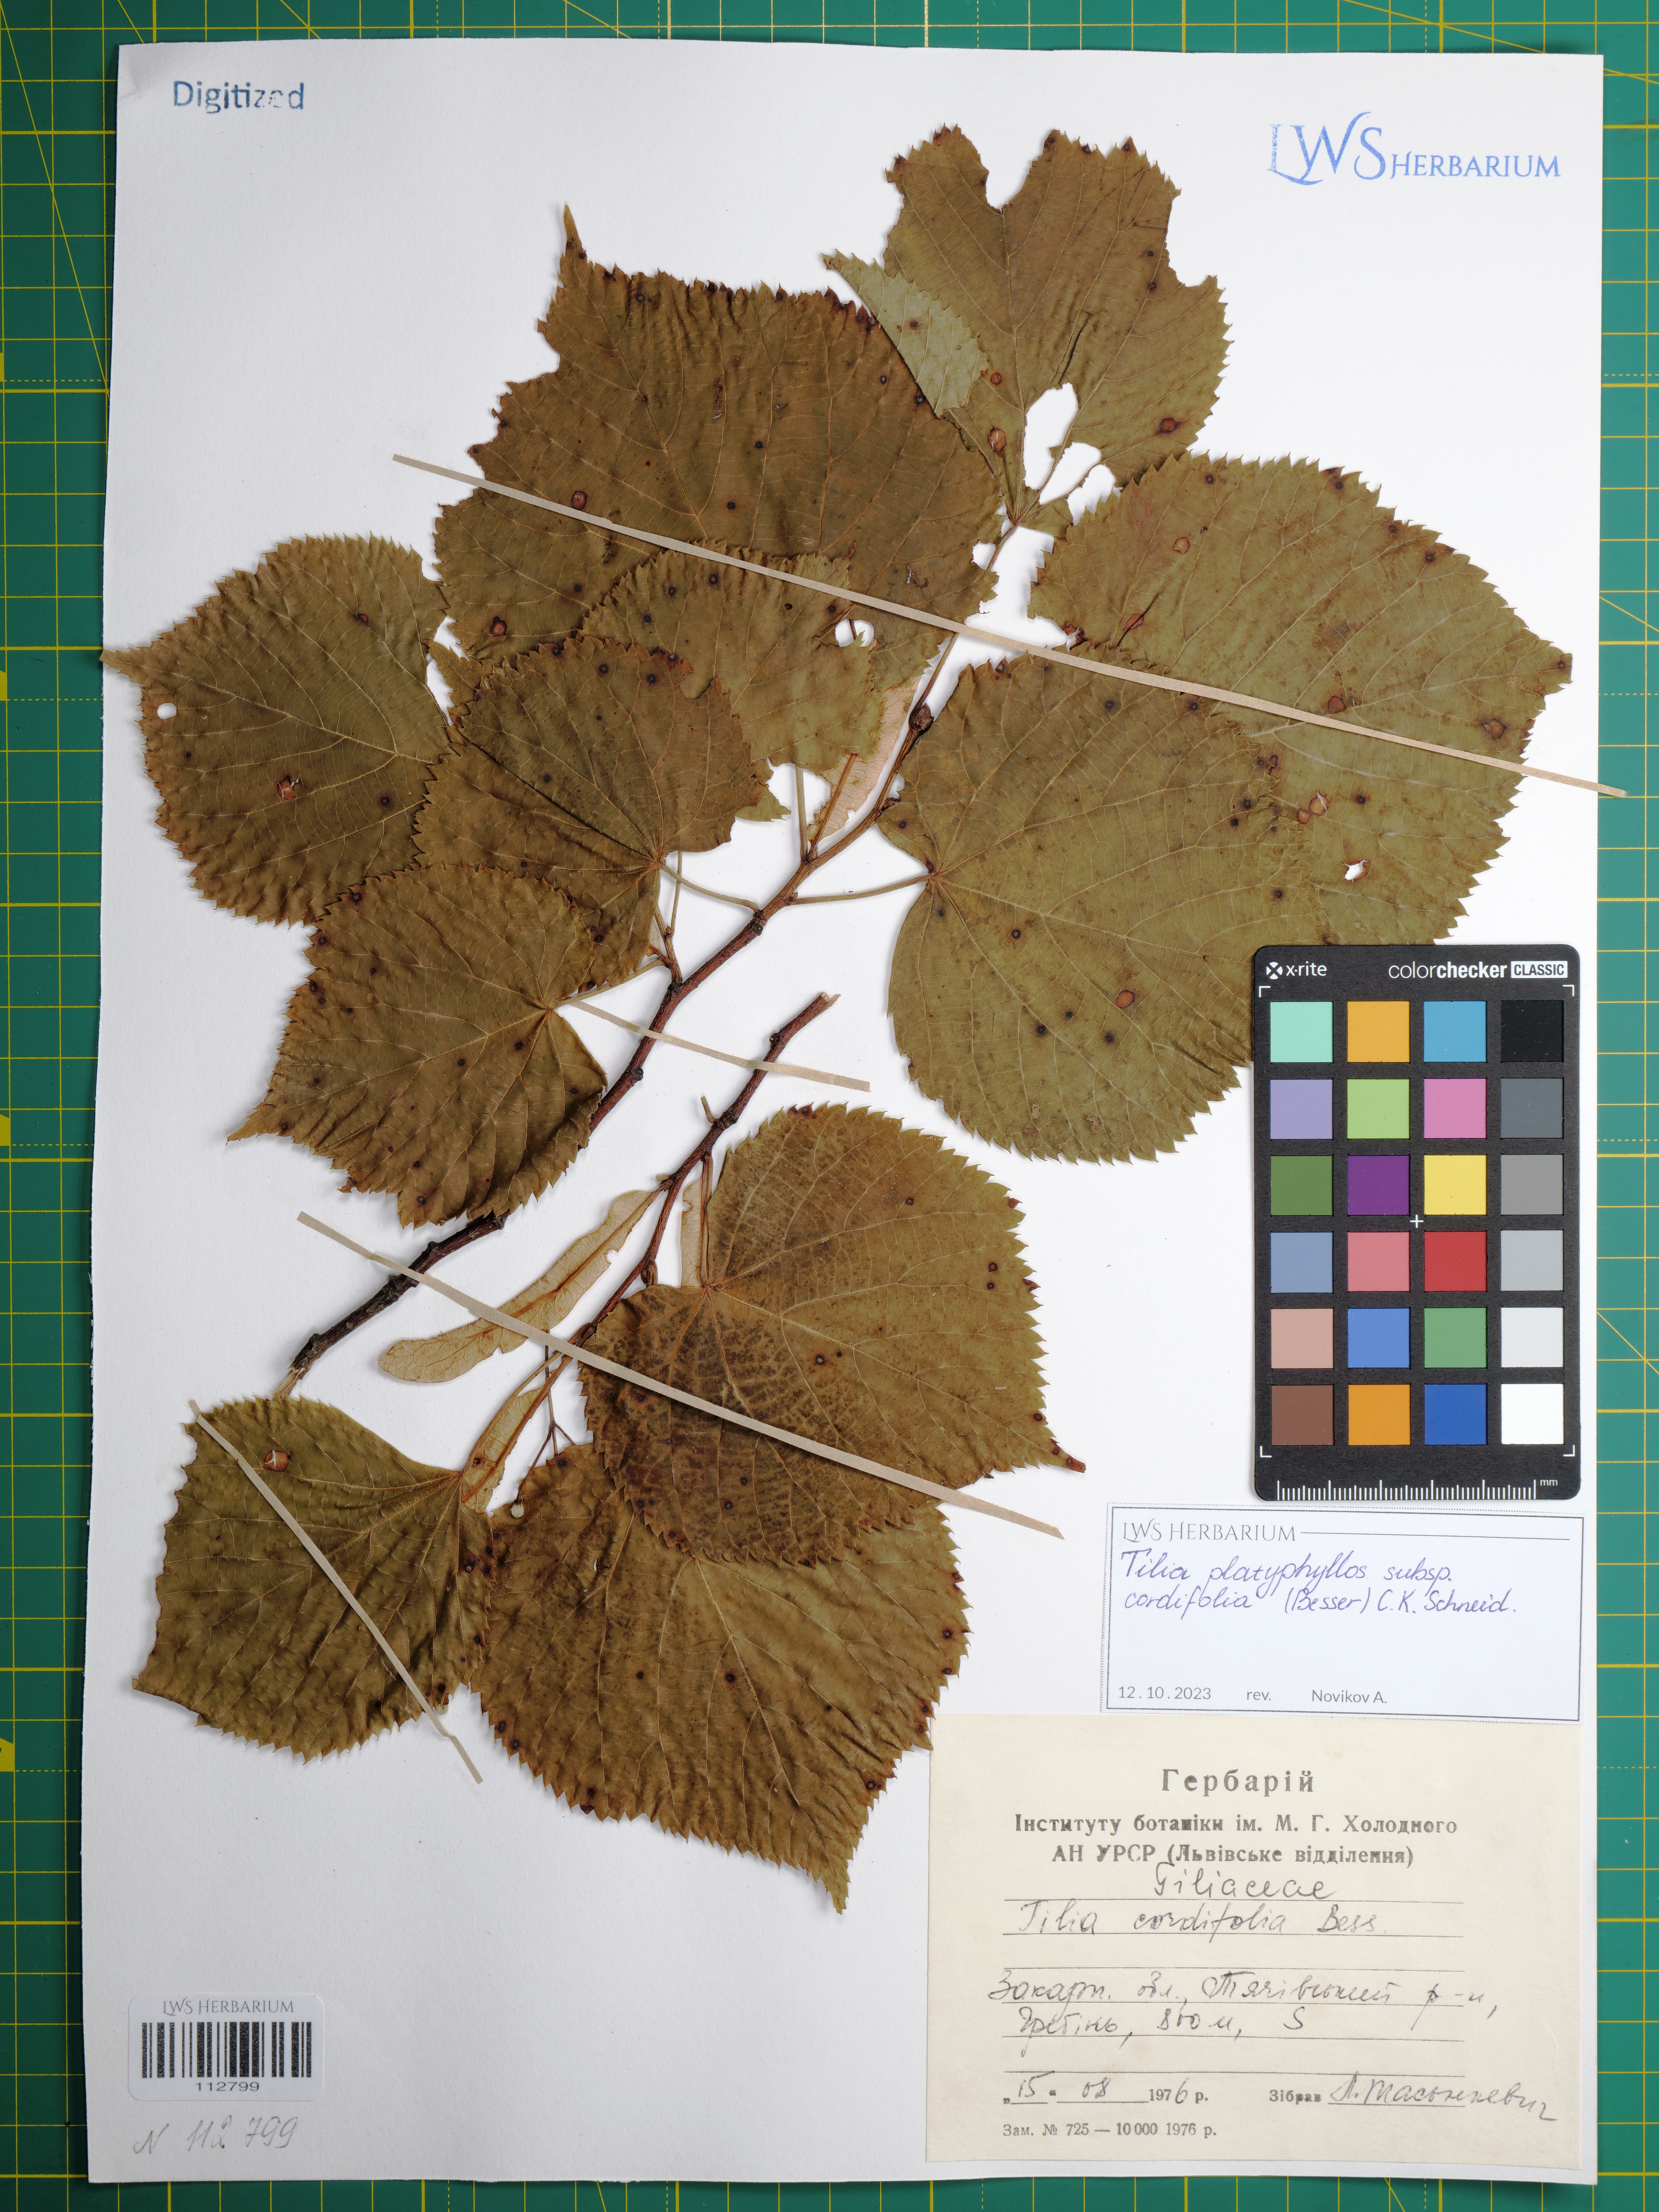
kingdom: Plantae
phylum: Tracheophyta
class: Magnoliopsida
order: Malvales
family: Malvaceae
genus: Tilia
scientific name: Tilia platyphyllos
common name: Large-leaved lime
